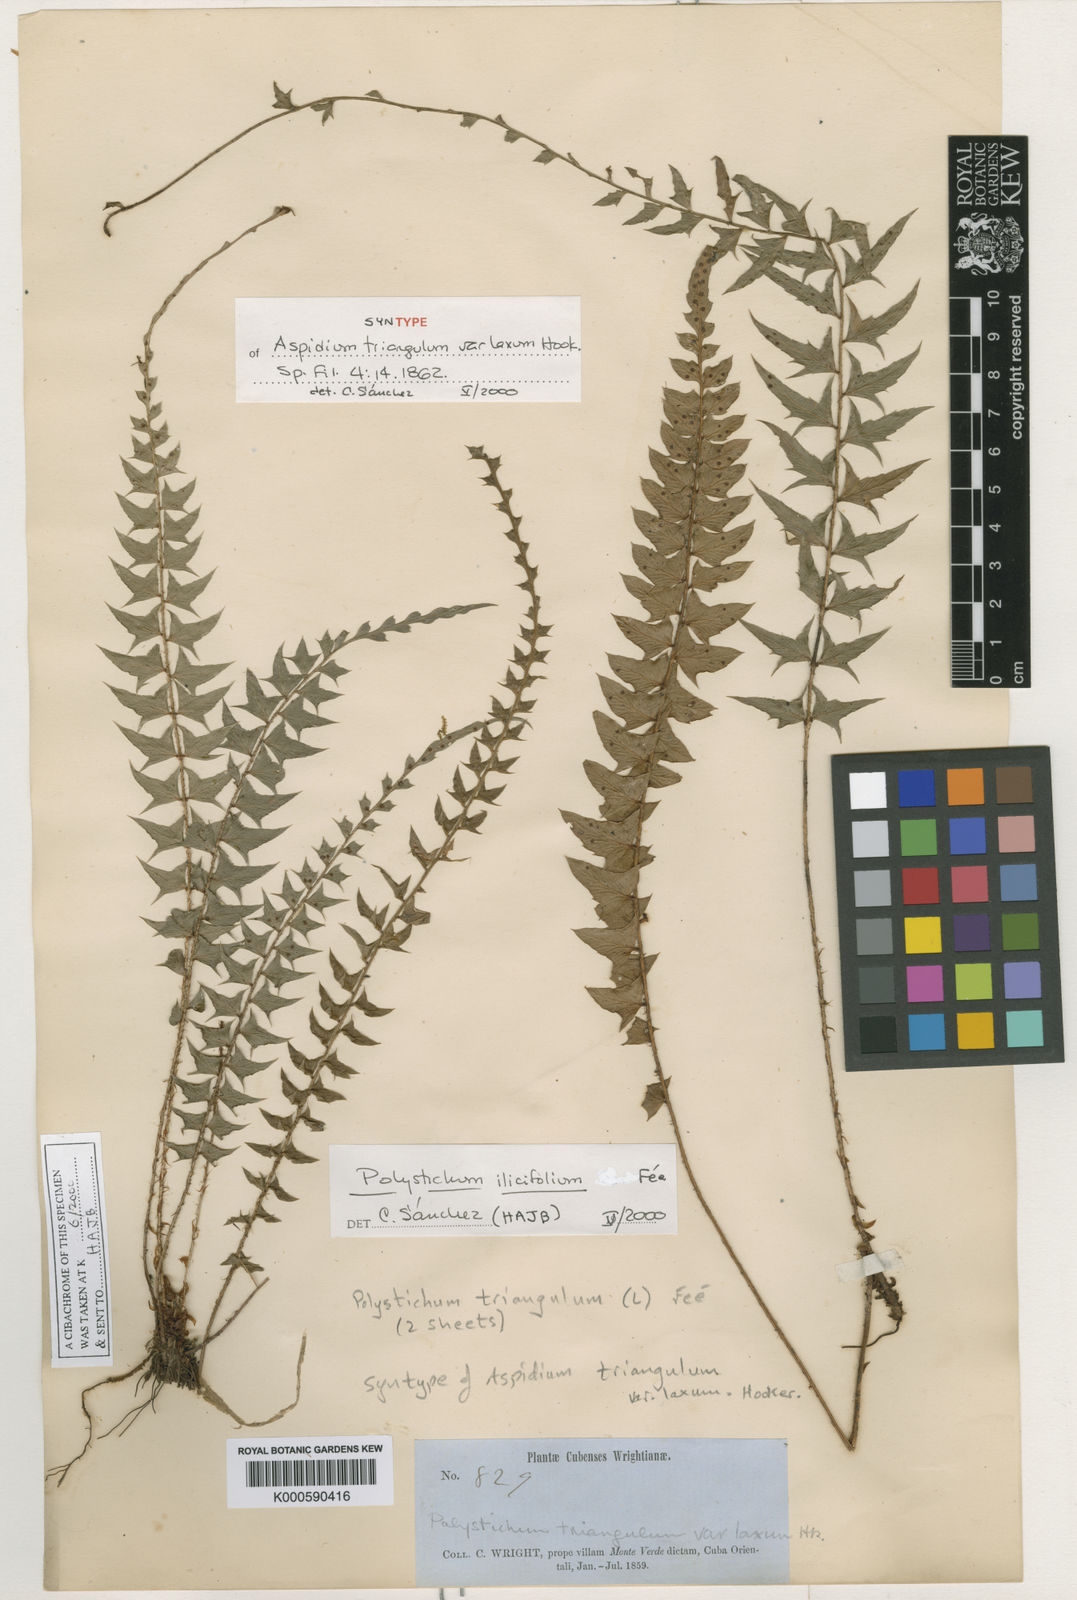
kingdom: Plantae
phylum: Tracheophyta
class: Polypodiopsida
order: Polypodiales
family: Dryopteridaceae
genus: Polystichum
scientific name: Polystichum machaerophyllum
